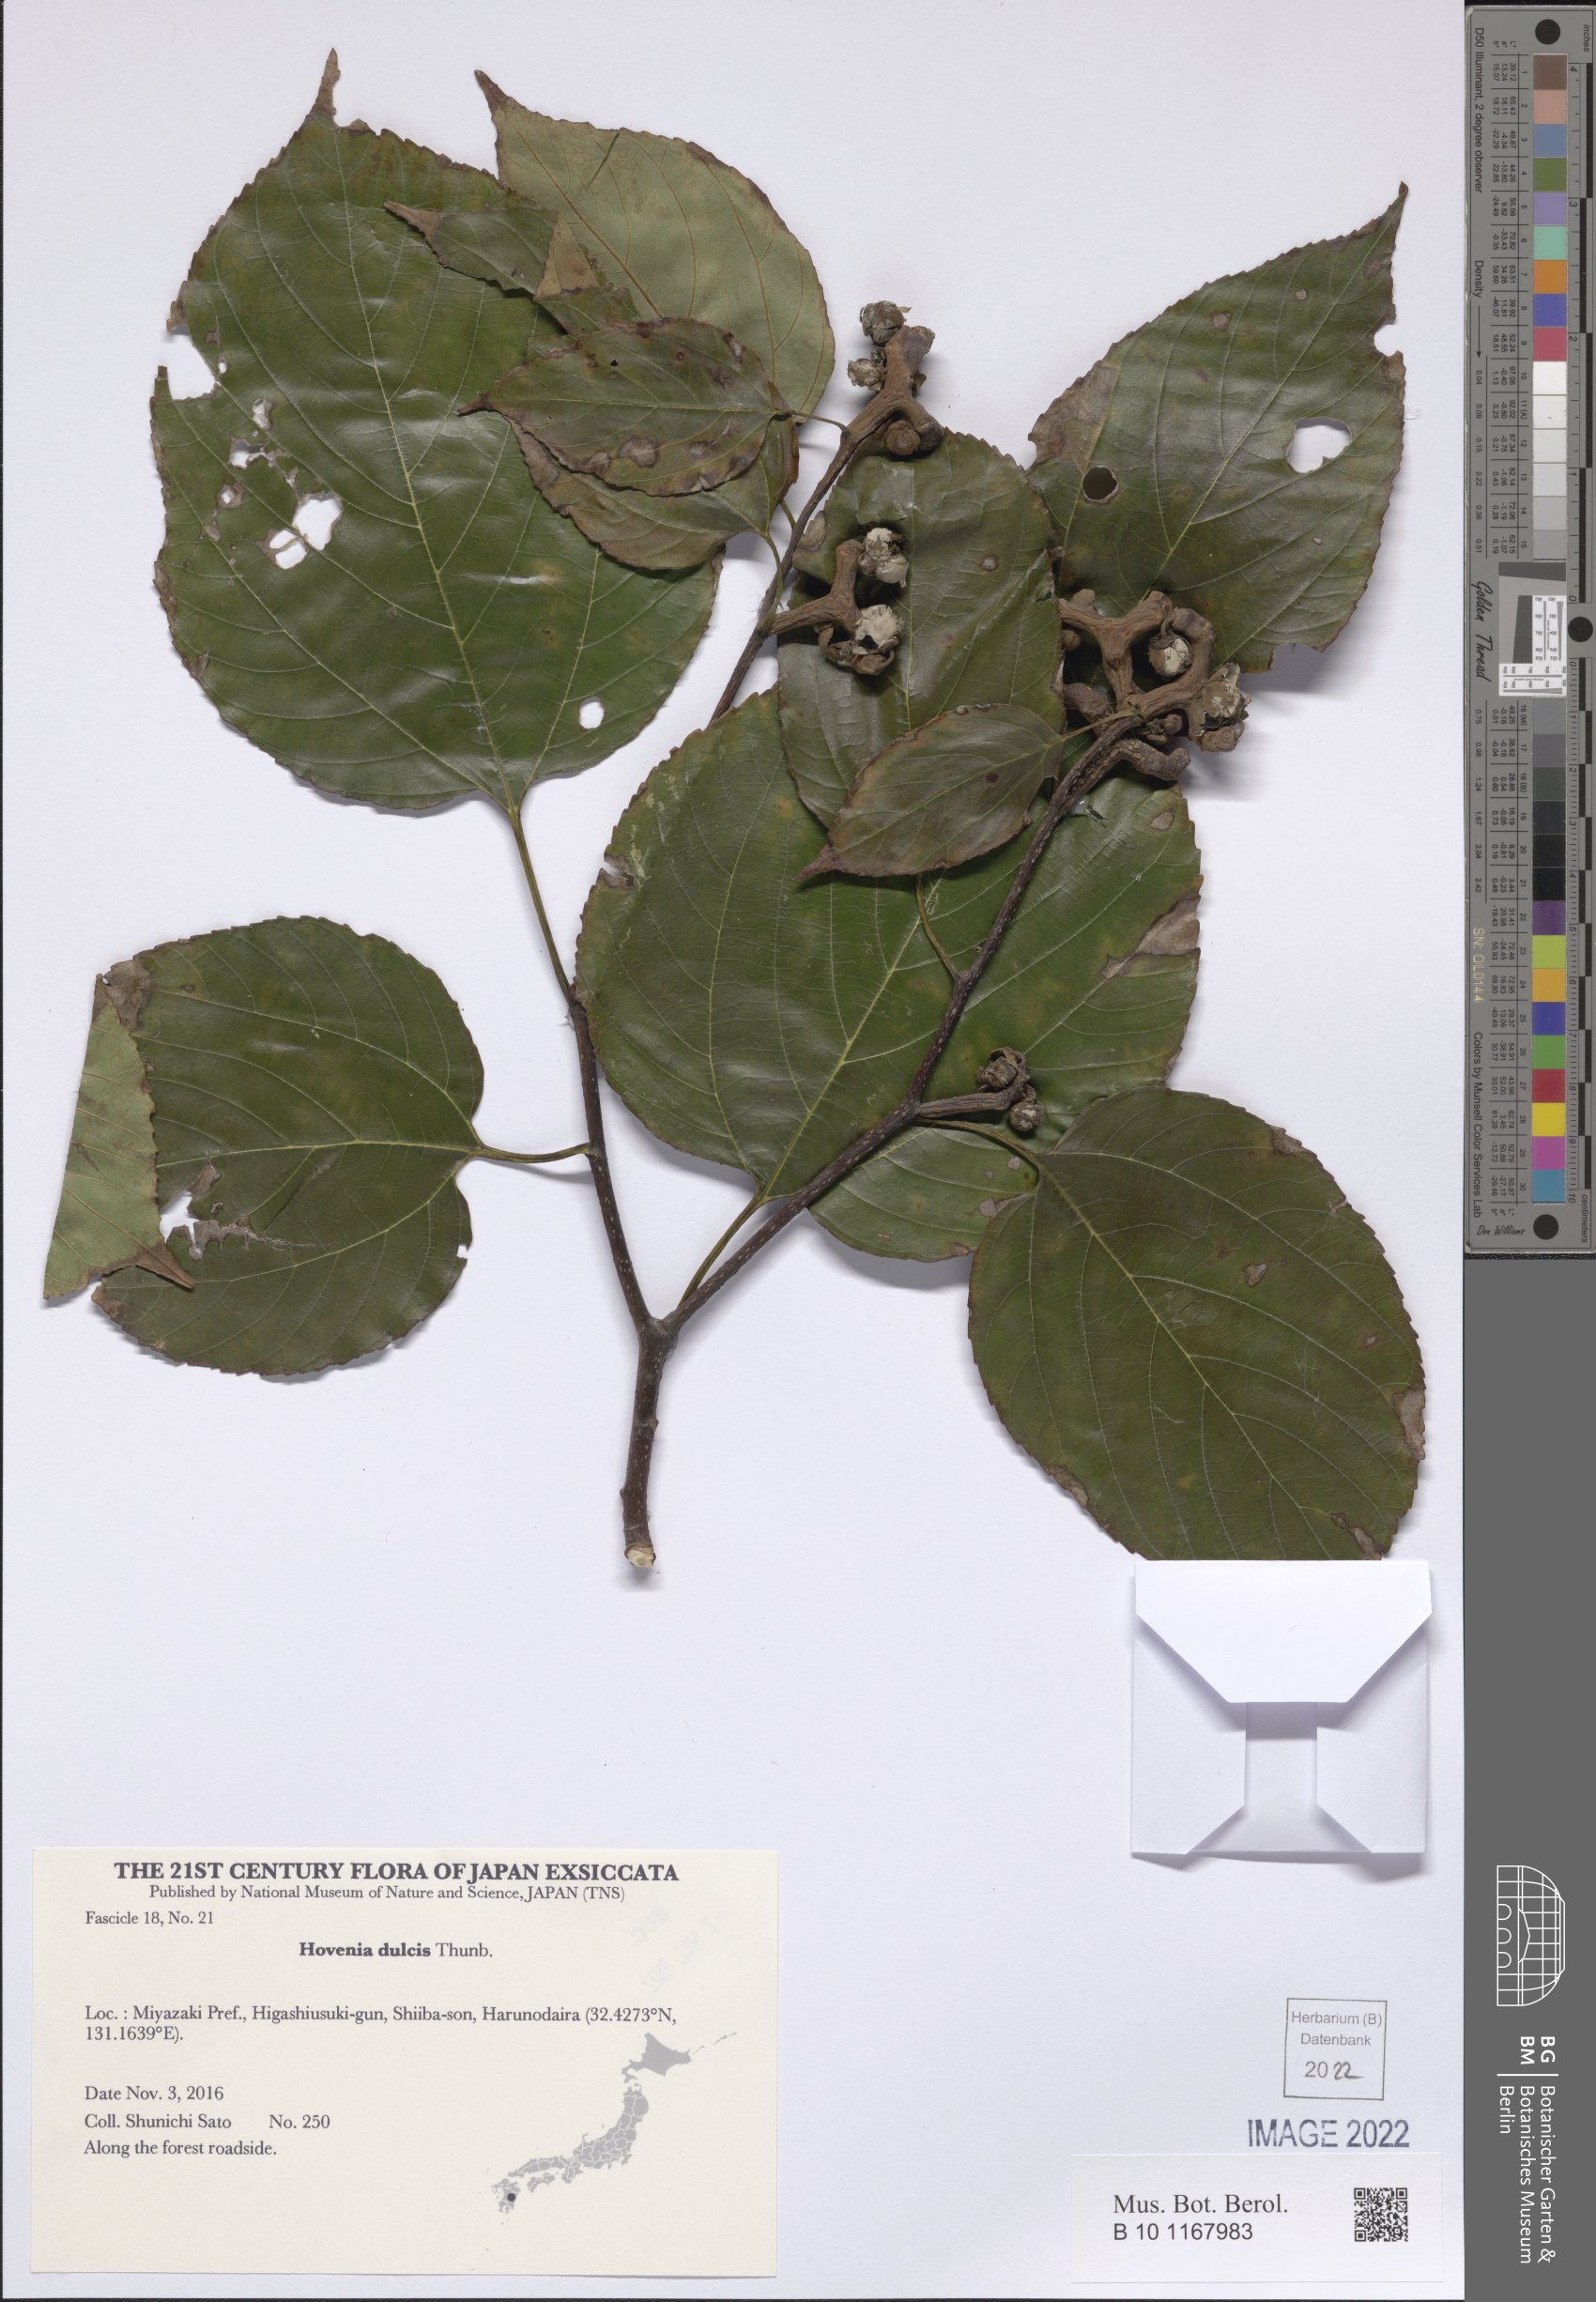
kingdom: Plantae
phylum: Tracheophyta
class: Magnoliopsida
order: Rosales
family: Rhamnaceae
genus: Hovenia
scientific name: Hovenia dulcis
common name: Japanese raisintree
